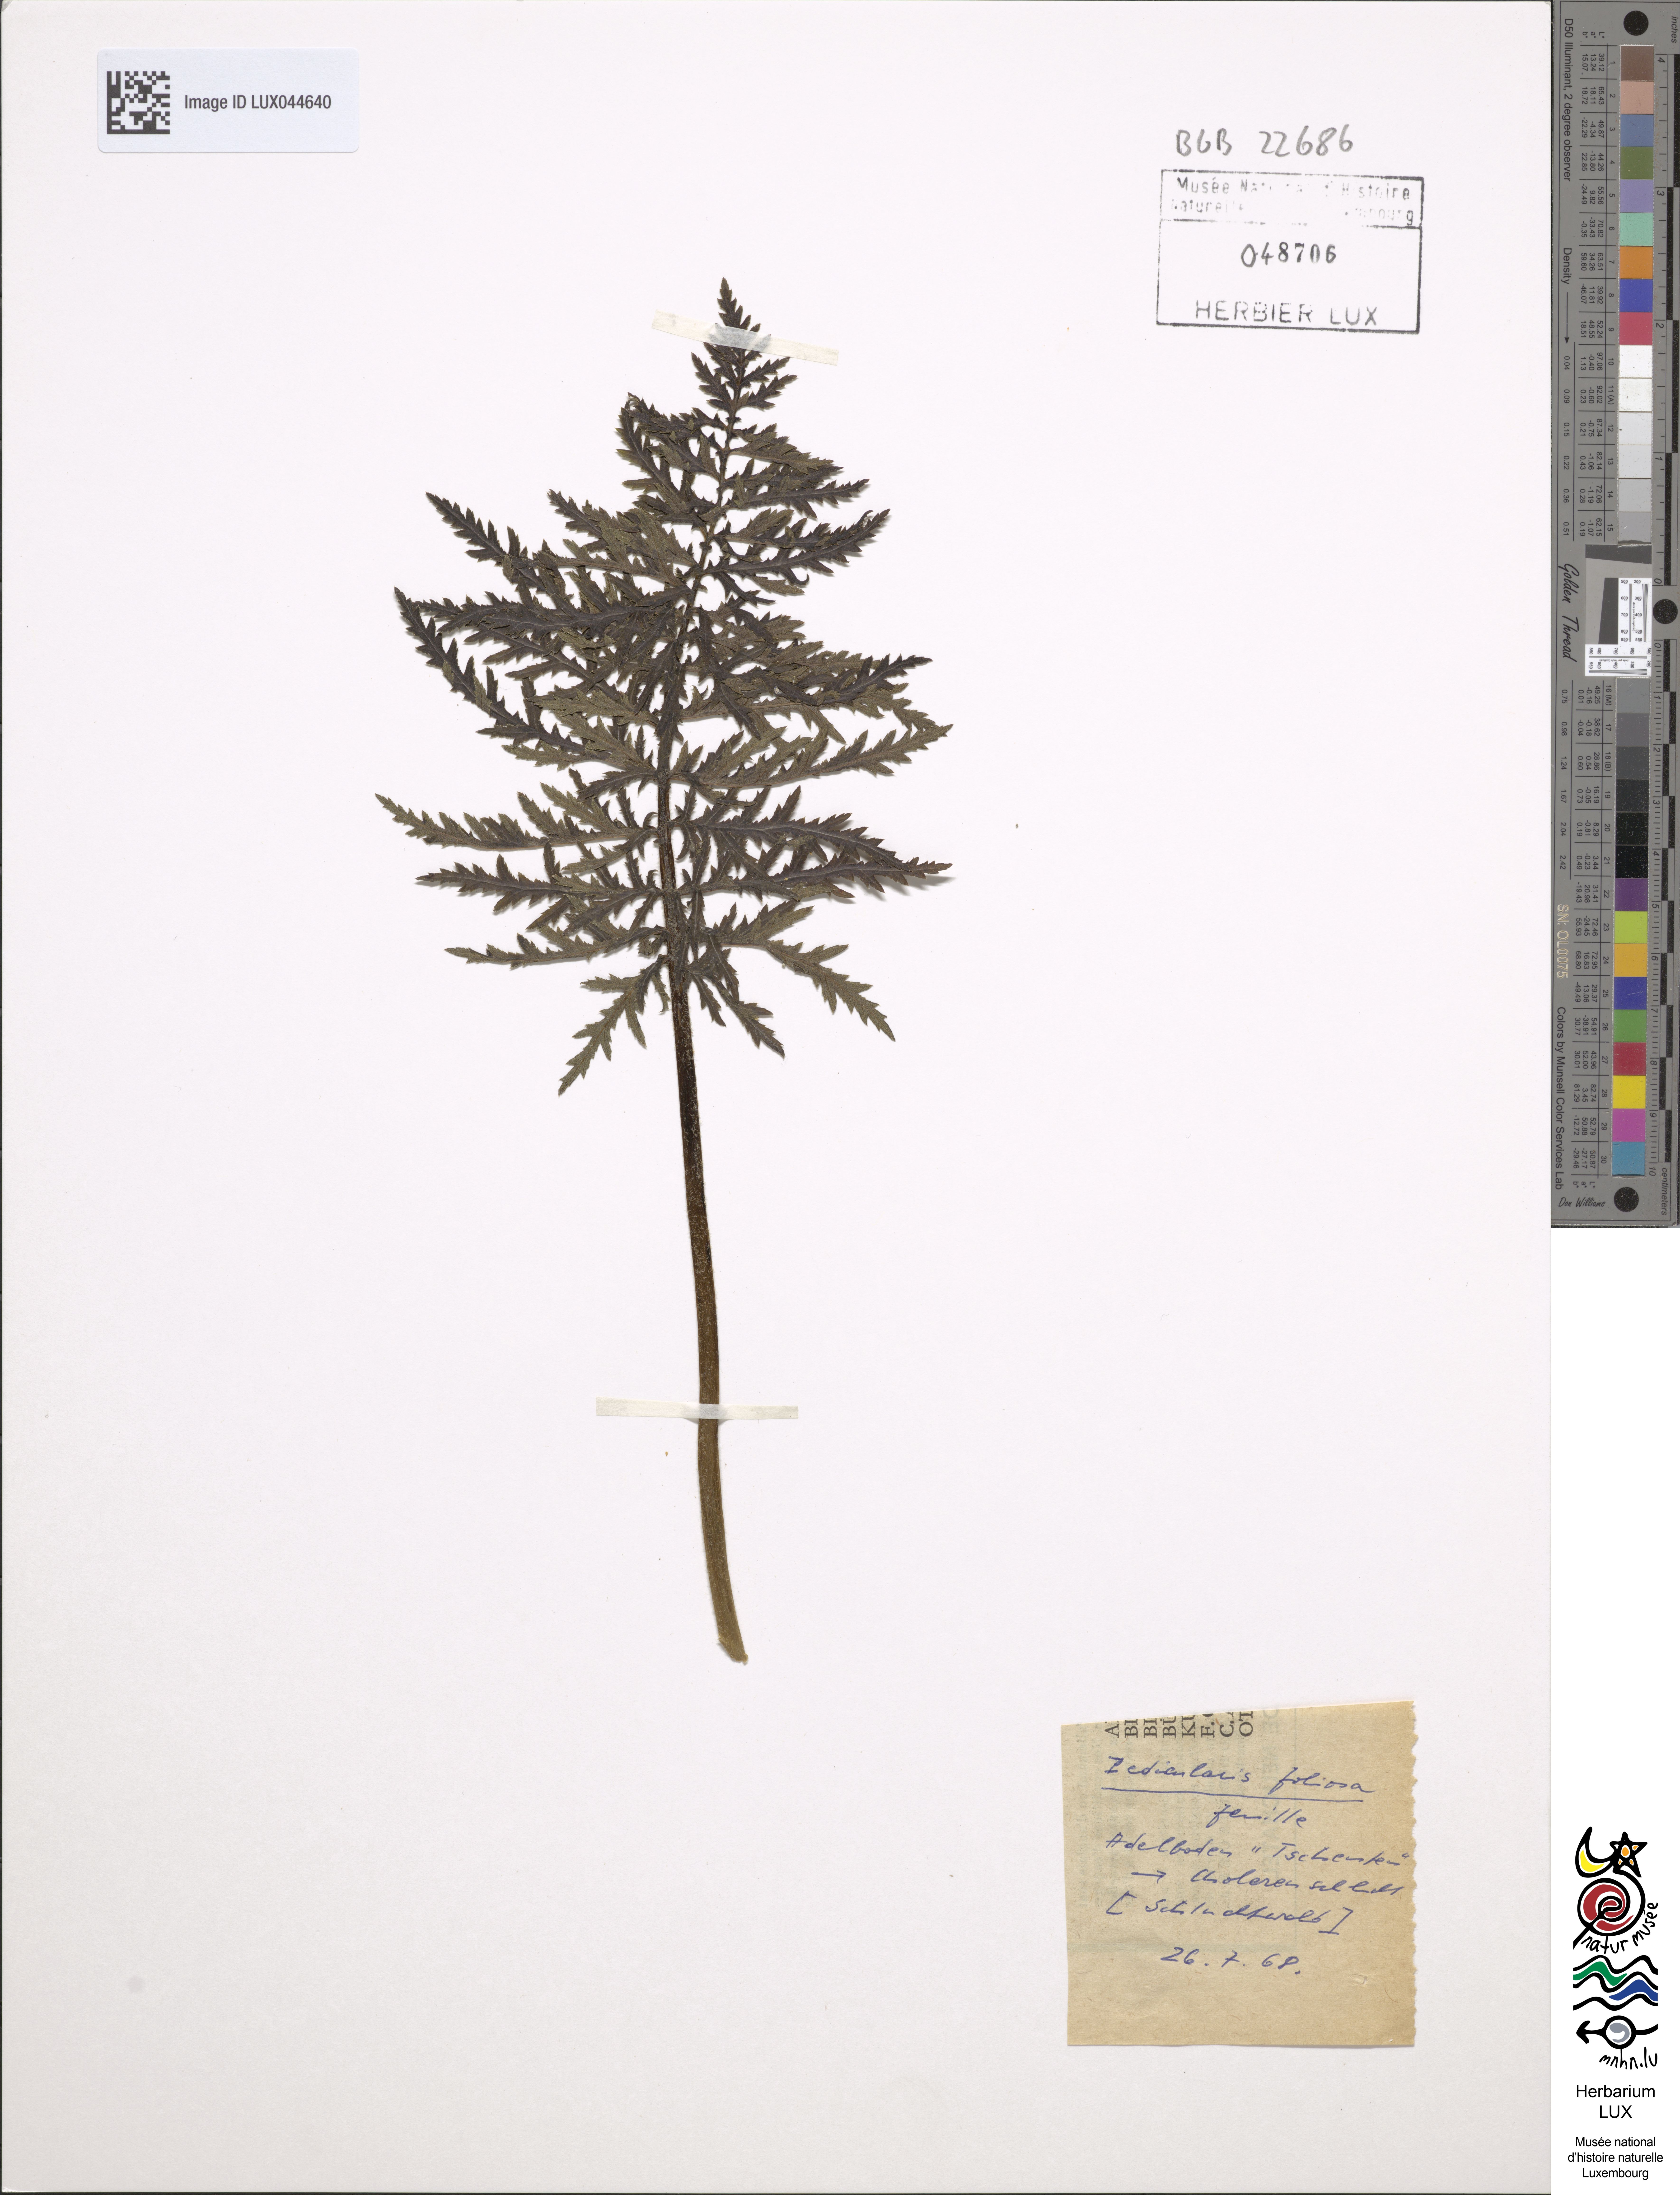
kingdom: Plantae
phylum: Tracheophyta
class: Magnoliopsida
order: Lamiales
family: Orobanchaceae
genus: Pedicularis
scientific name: Pedicularis foliosa
